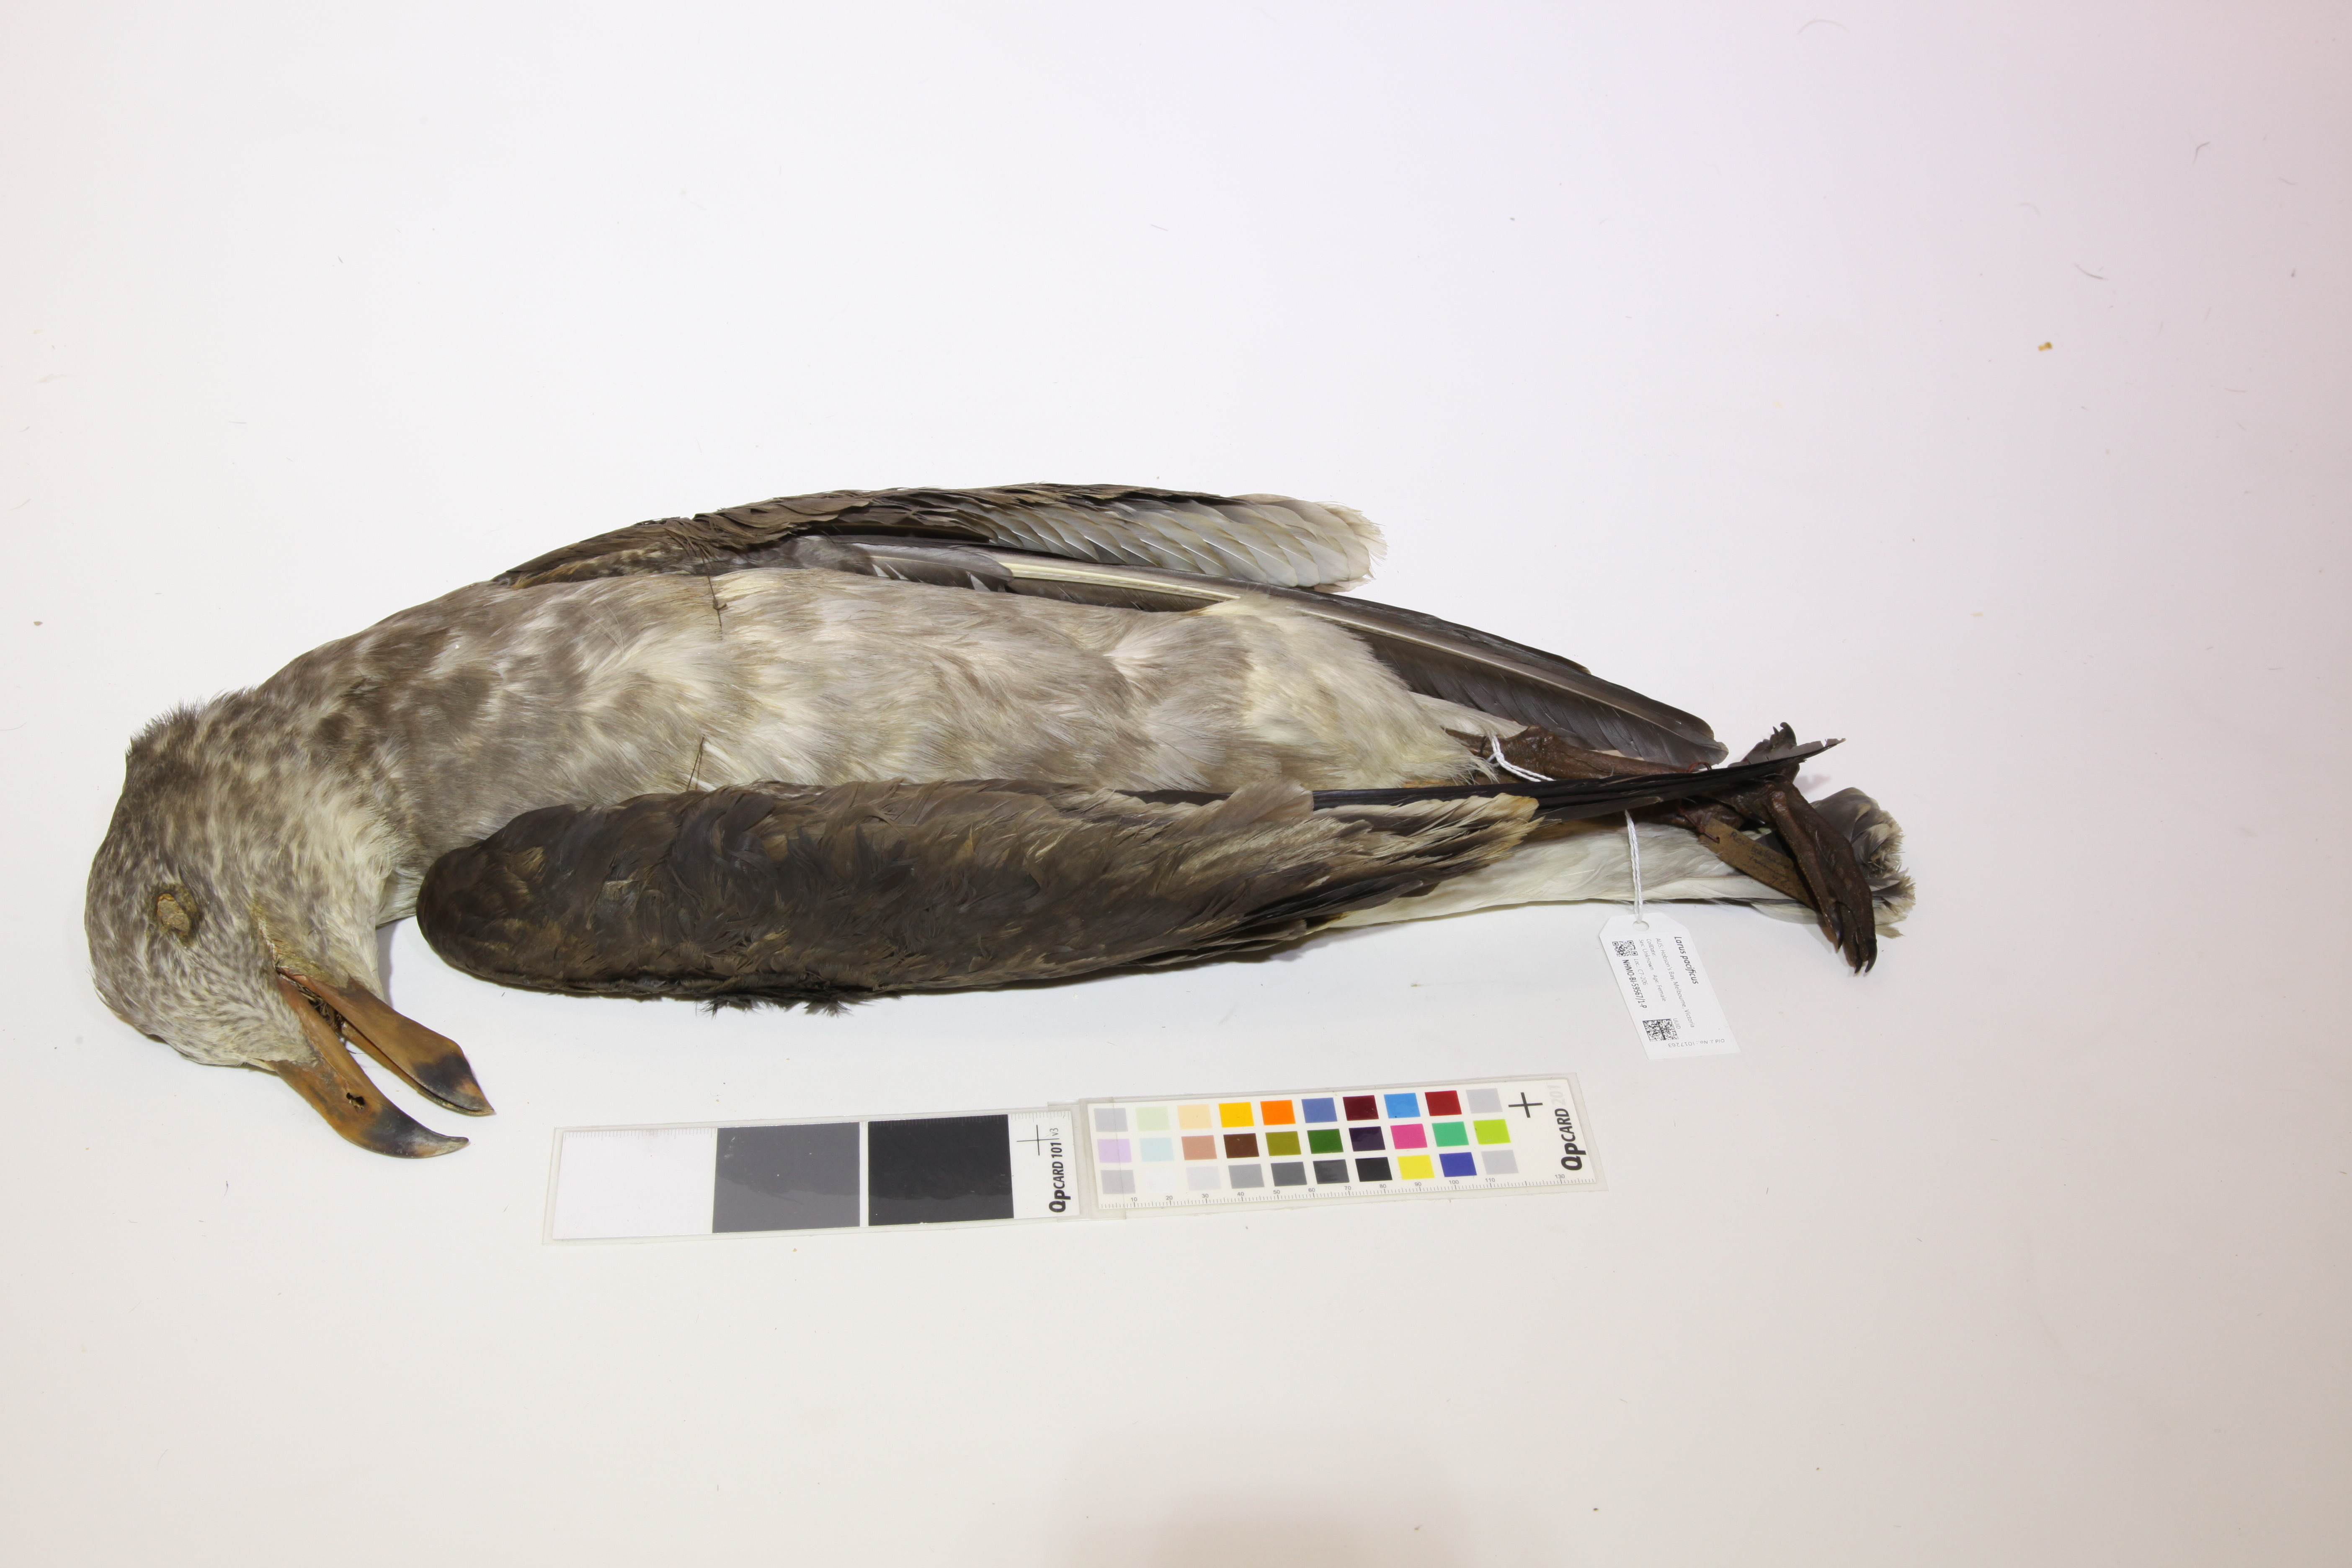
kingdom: Animalia
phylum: Chordata
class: Aves
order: Charadriiformes
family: Laridae
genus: Larus
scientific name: Larus pacificus
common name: Pacific gull
